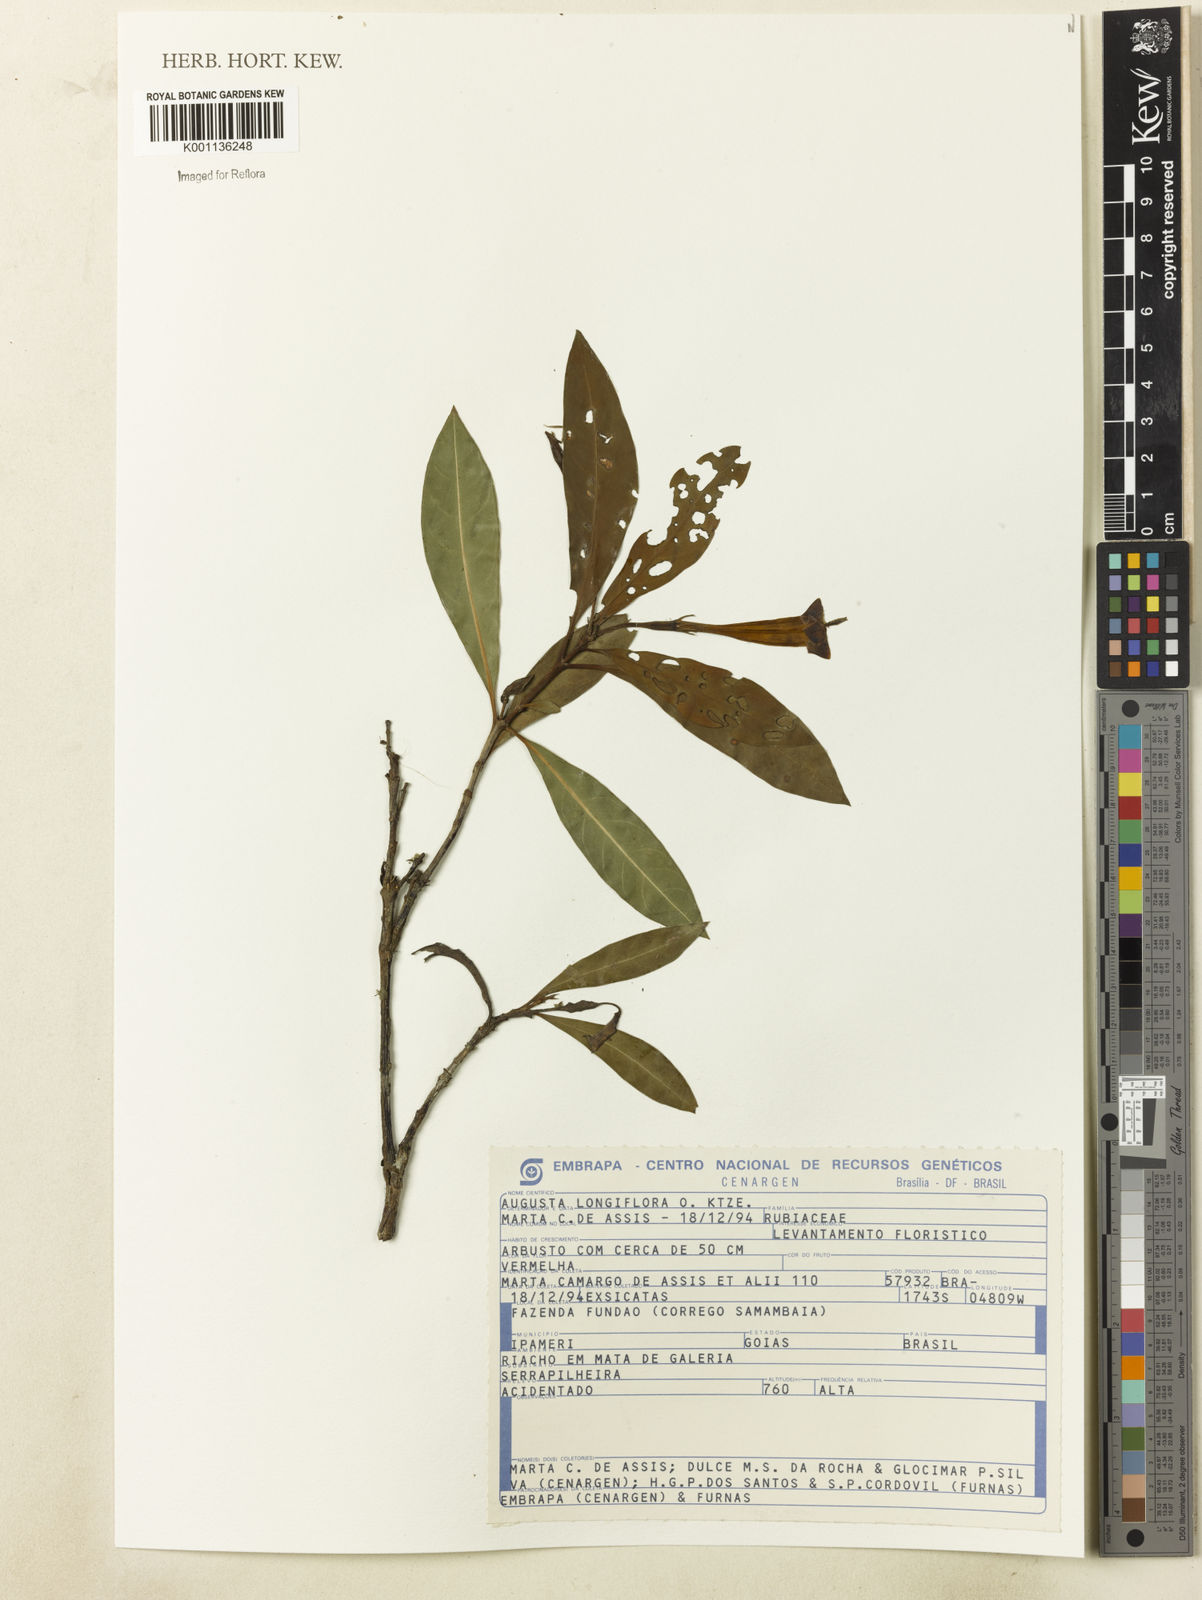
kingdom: Plantae
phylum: Tracheophyta
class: Magnoliopsida
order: Gentianales
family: Rubiaceae
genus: Augusta
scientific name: Augusta longifolia
